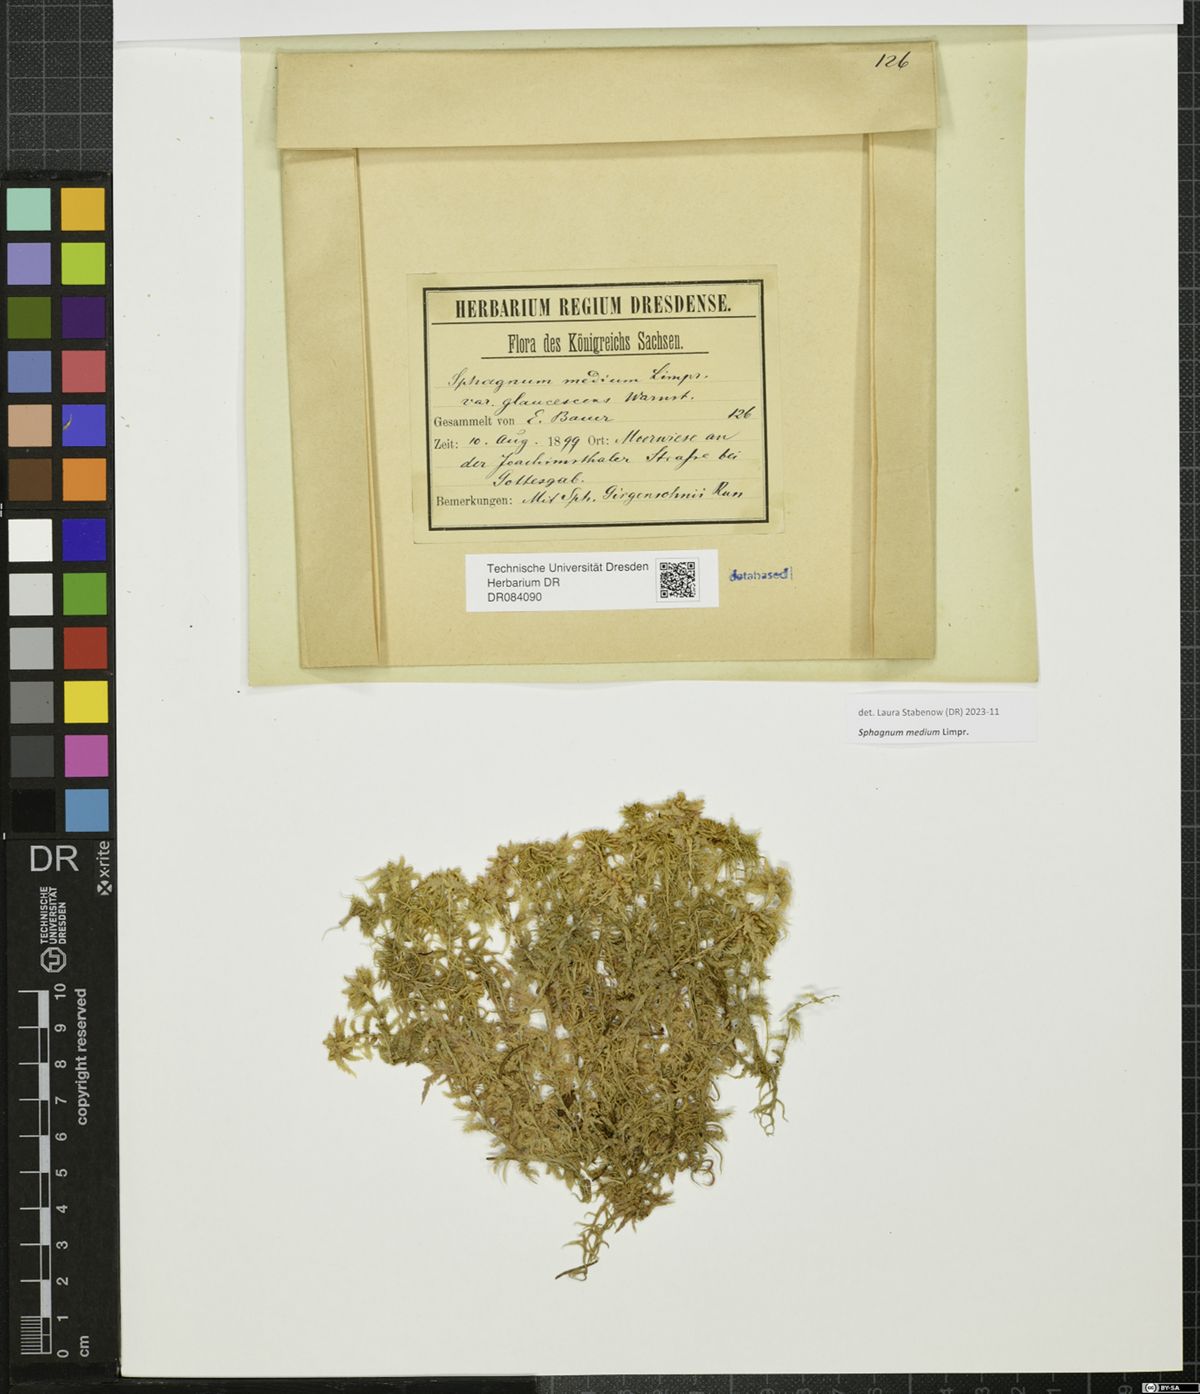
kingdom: Plantae
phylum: Bryophyta
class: Sphagnopsida
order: Sphagnales
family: Sphagnaceae
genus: Sphagnum
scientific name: Sphagnum medium
